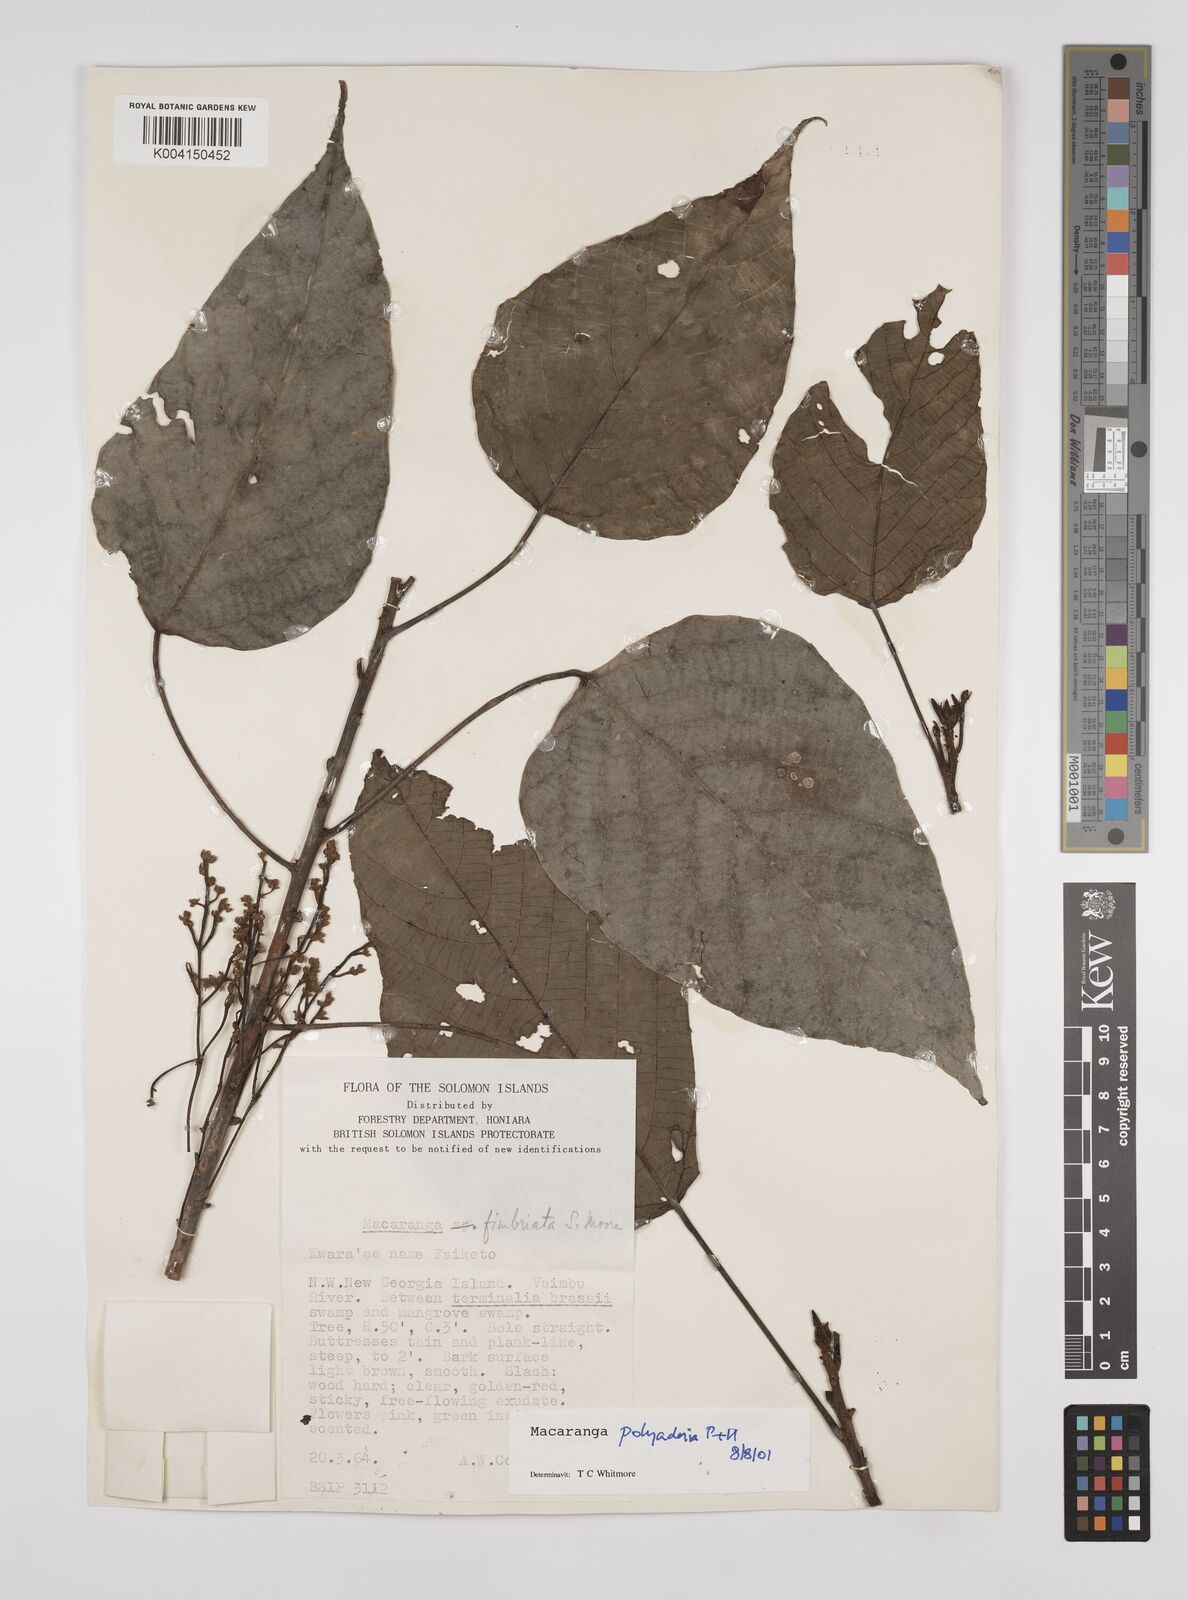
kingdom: Plantae
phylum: Tracheophyta
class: Magnoliopsida
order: Malpighiales
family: Euphorbiaceae
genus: Macaranga
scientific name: Macaranga polyadenia
